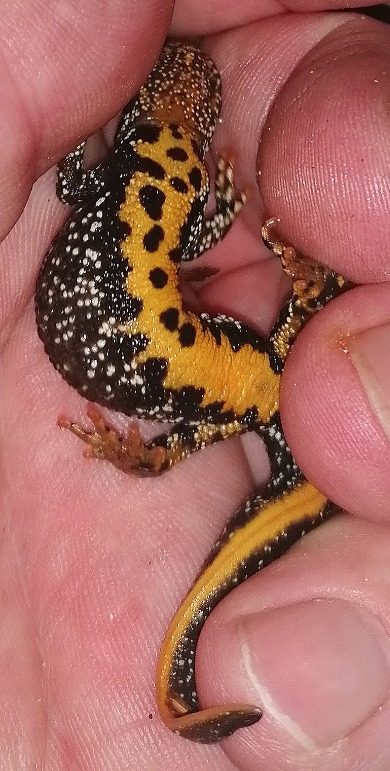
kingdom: Animalia
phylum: Chordata
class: Amphibia
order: Caudata
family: Salamandridae
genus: Triturus
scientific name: Triturus cristatus
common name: Stor vandsalamander
